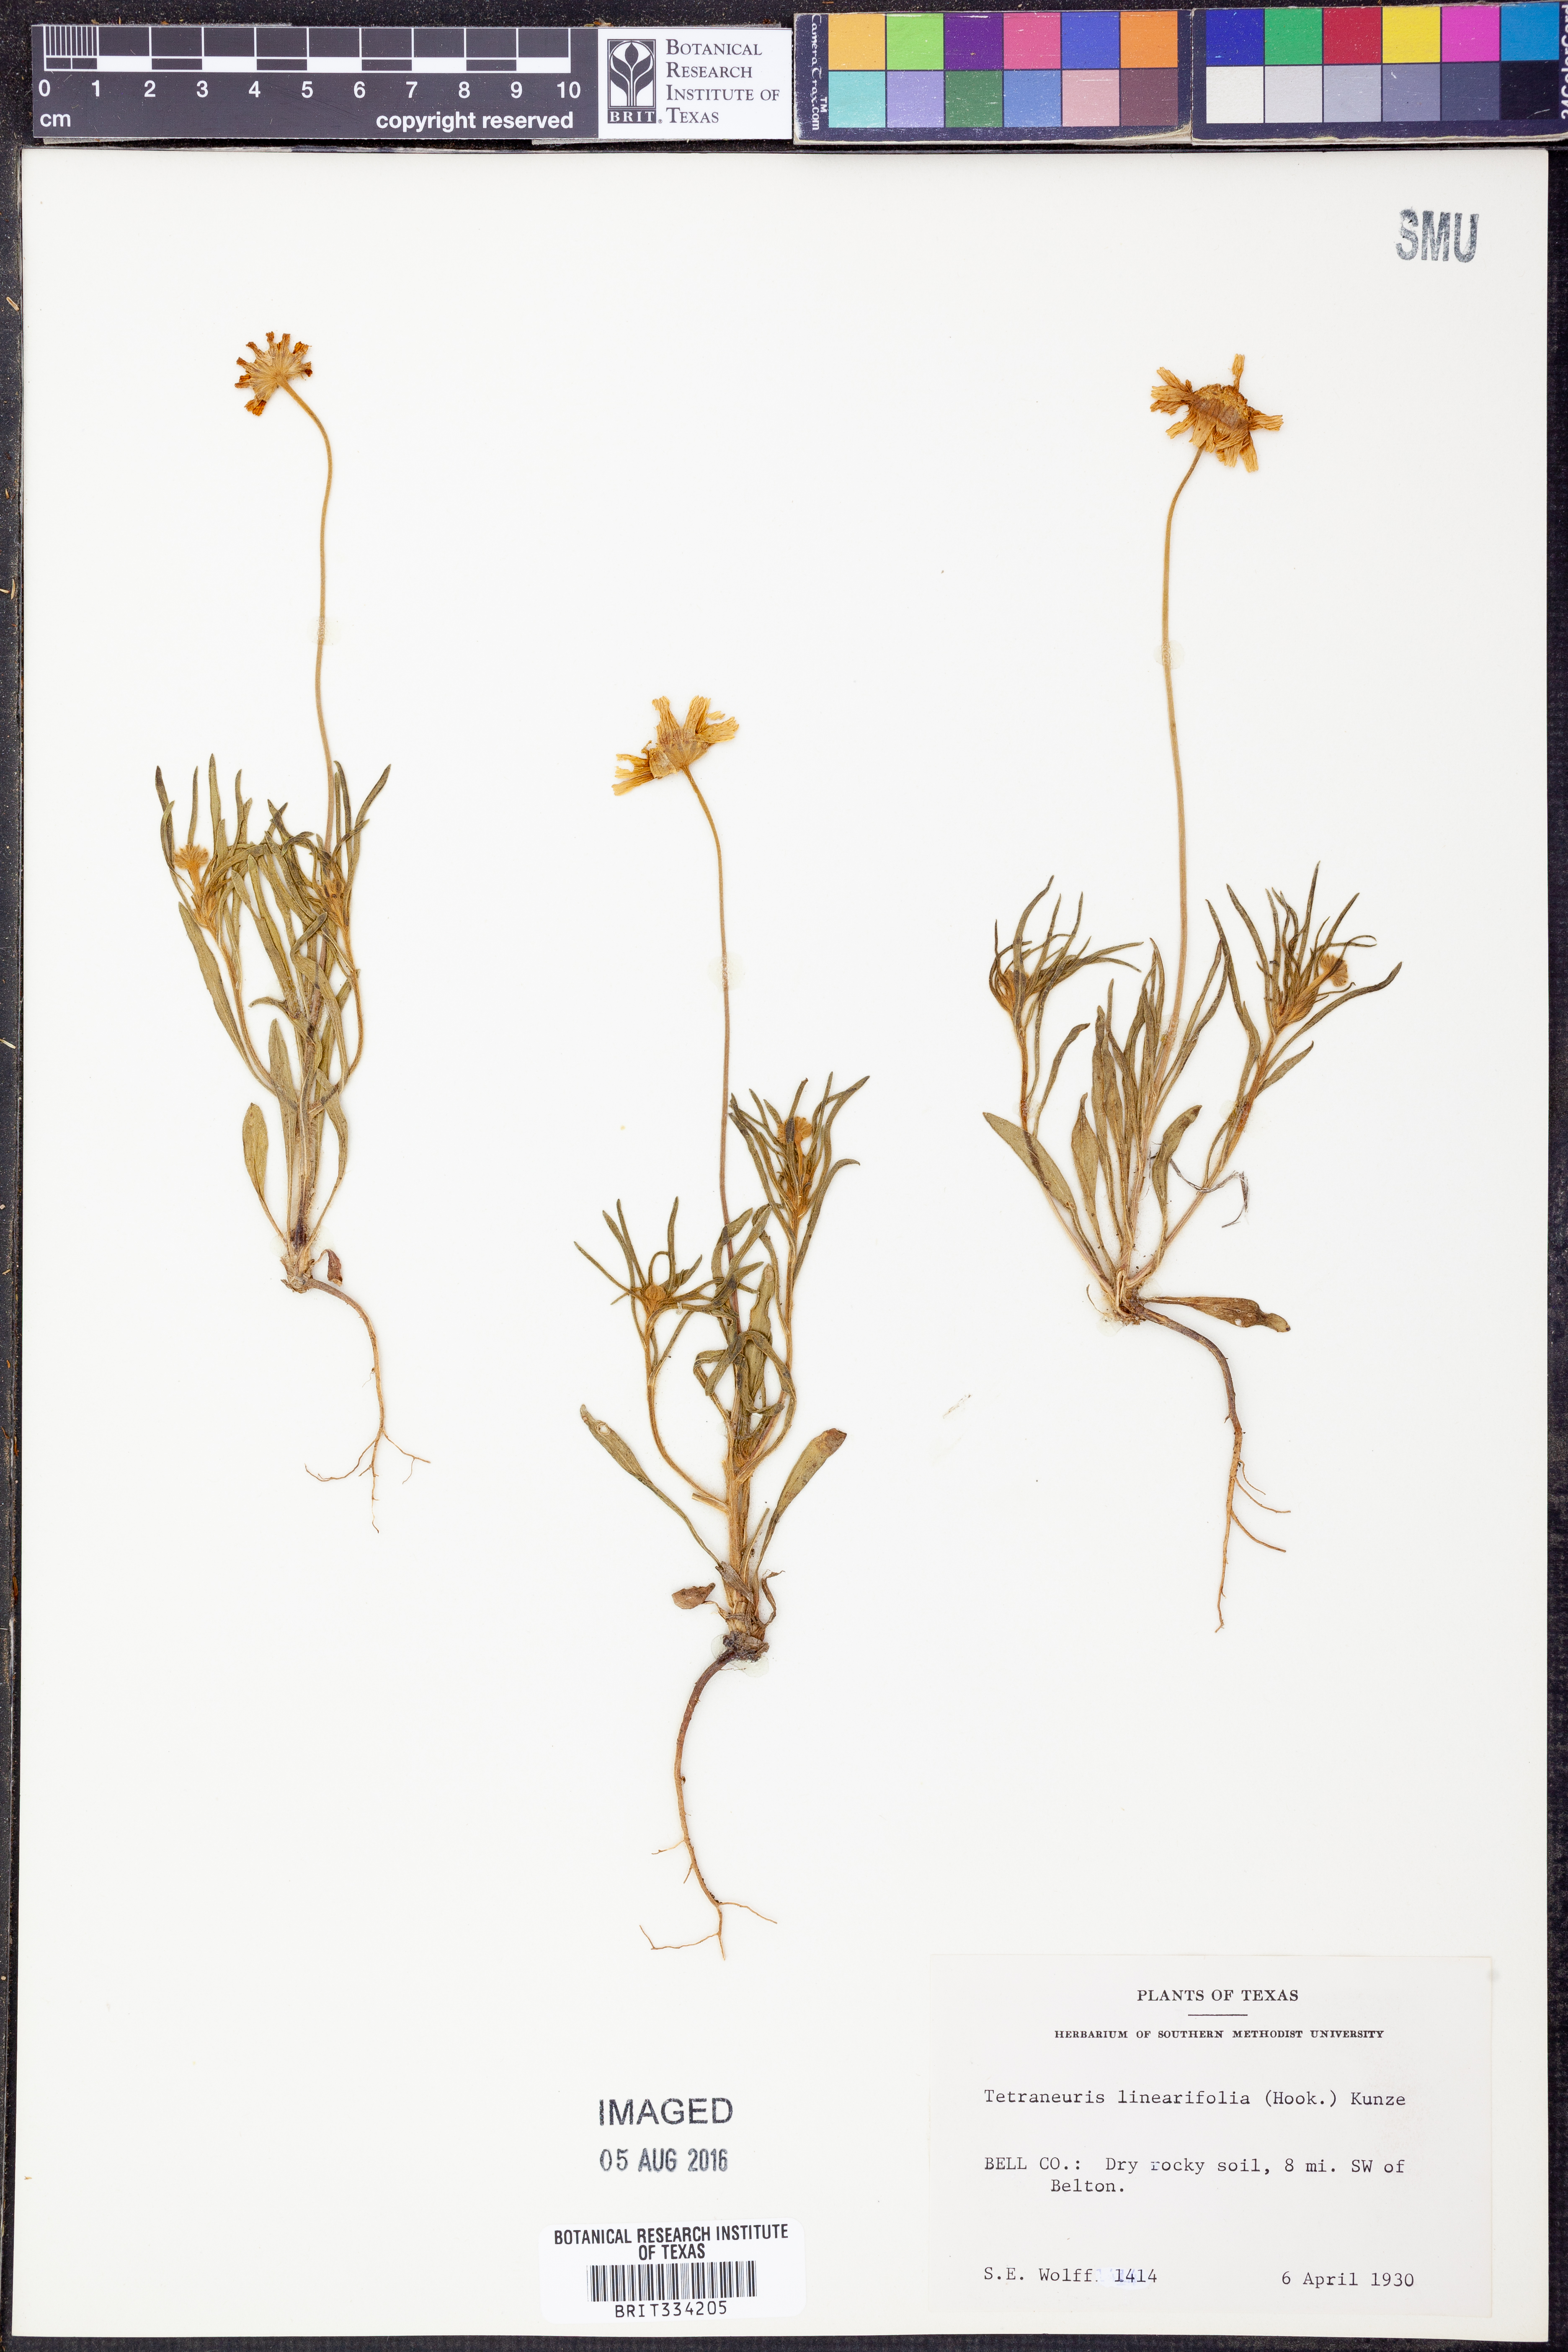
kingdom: Plantae
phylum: Tracheophyta
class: Magnoliopsida
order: Asterales
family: Asteraceae
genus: Tetraneuris
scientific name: Tetraneuris linearifolia
